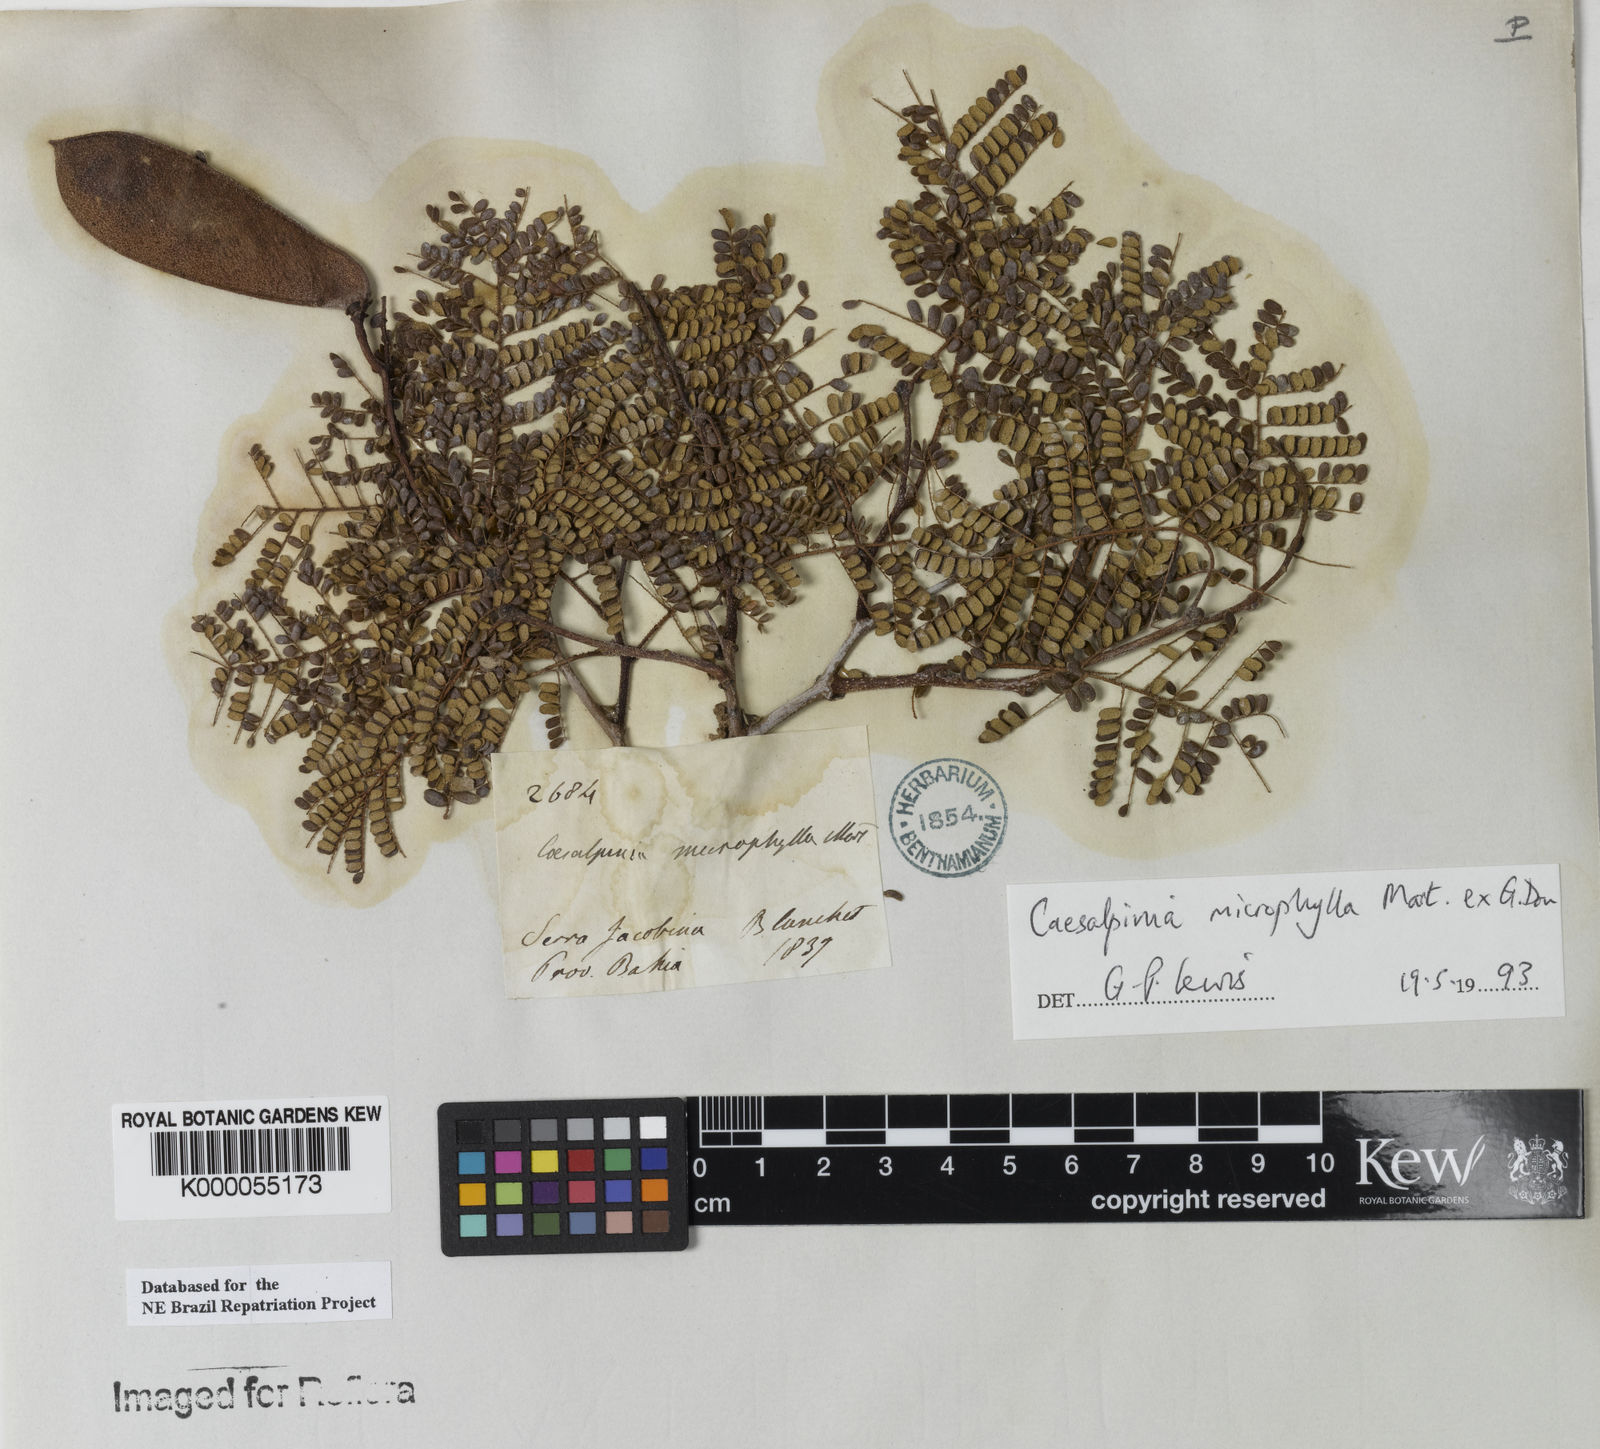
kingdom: Plantae
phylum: Tracheophyta
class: Magnoliopsida
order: Fabales
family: Fabaceae
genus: Cenostigma
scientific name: Cenostigma microphyllum
